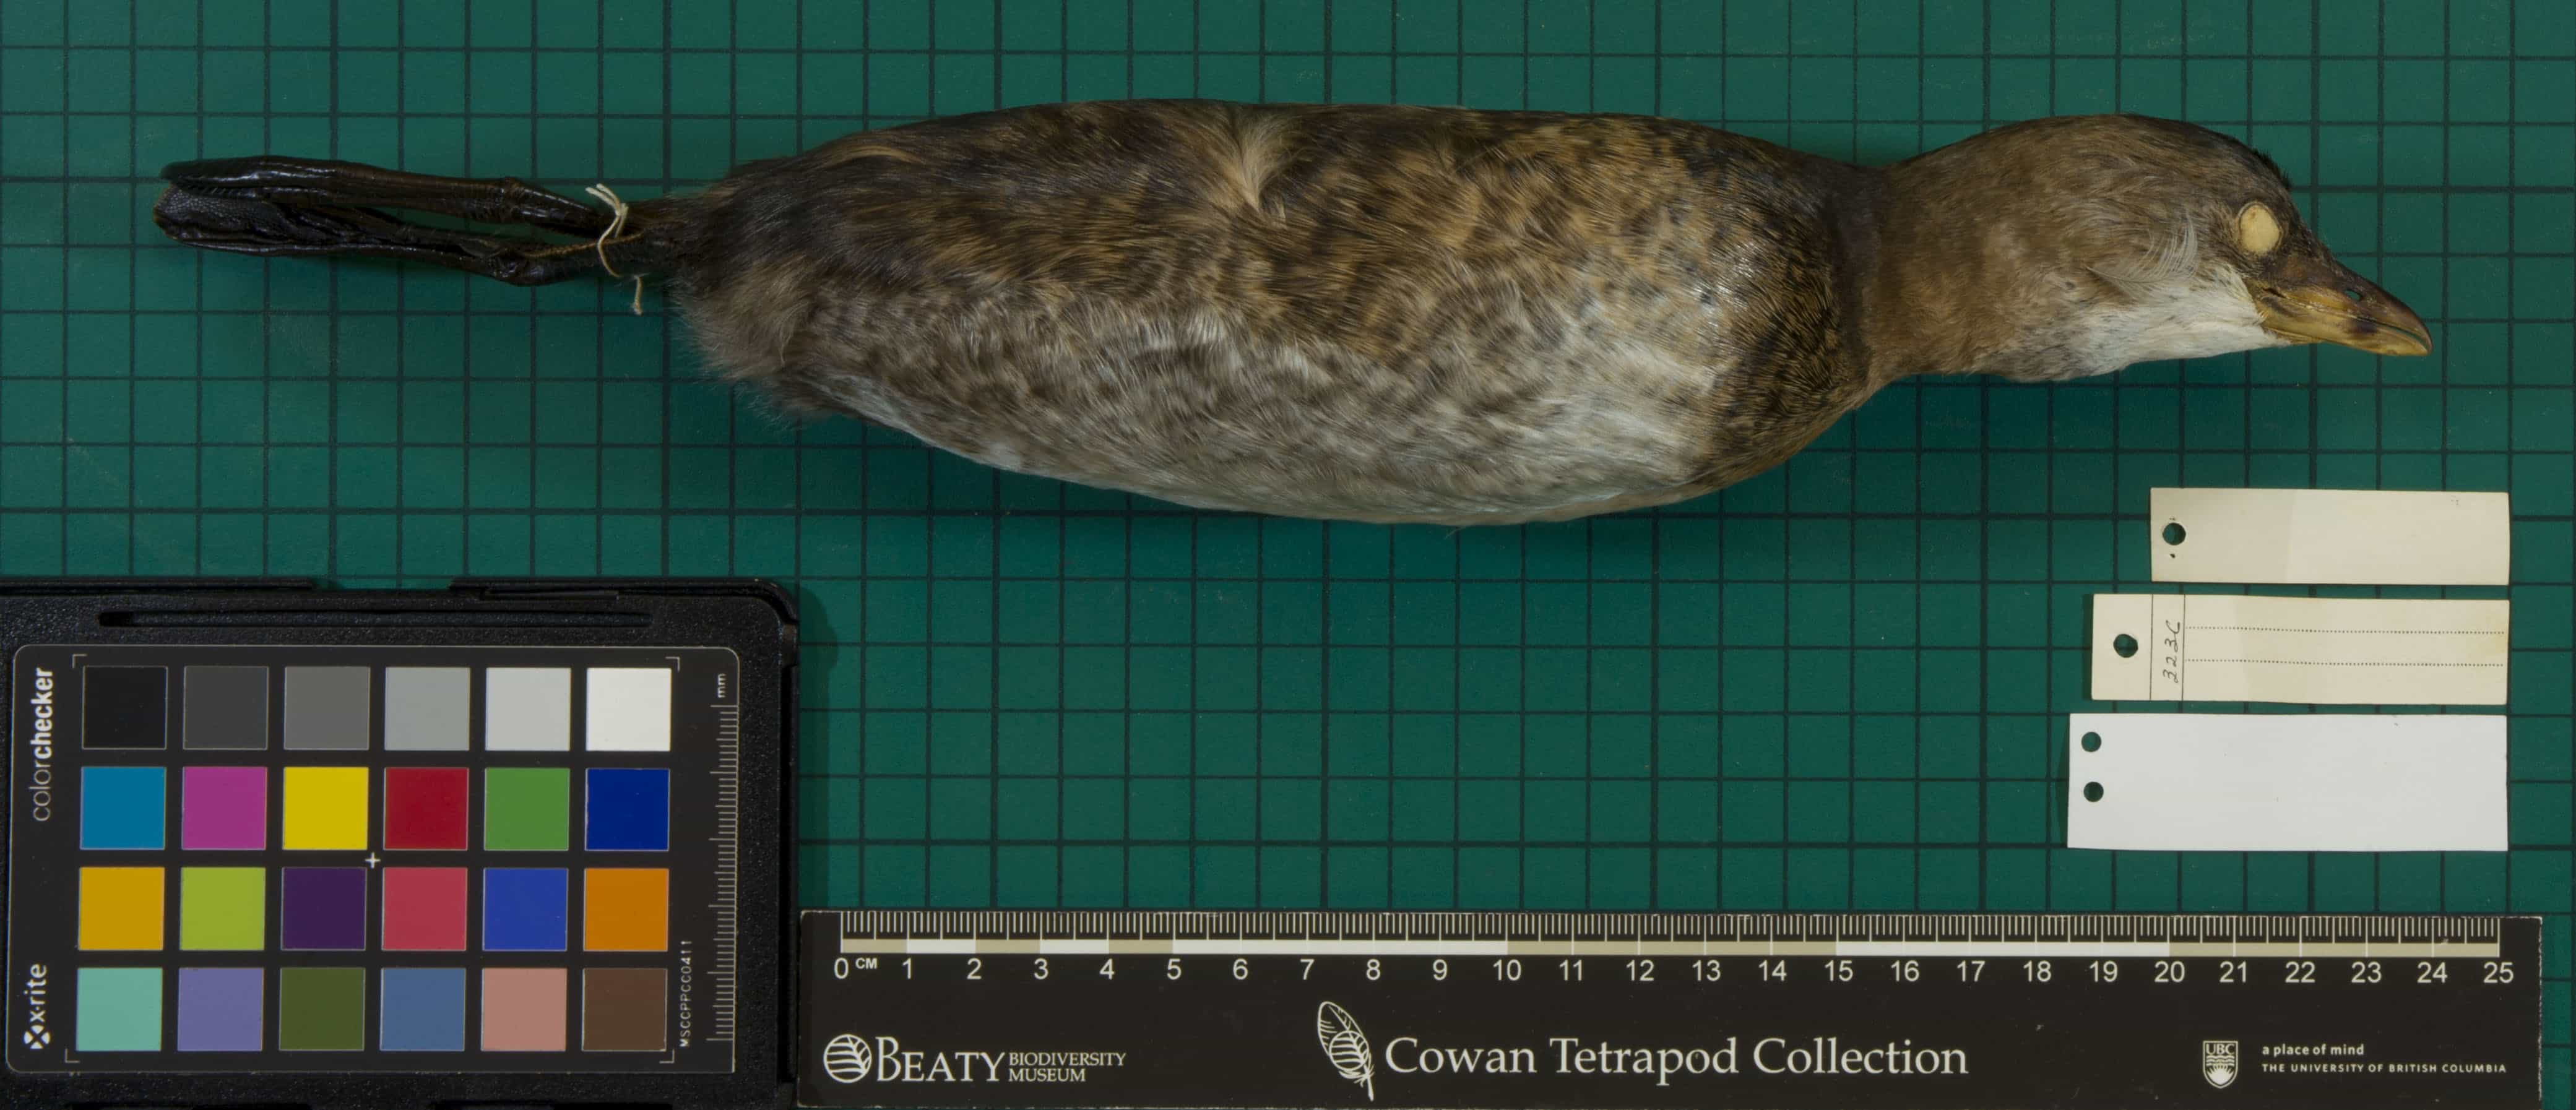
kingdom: Animalia
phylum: Chordata
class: Aves
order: Podicipediformes
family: Podicipedidae
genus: Podilymbus
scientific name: Podilymbus podiceps
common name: Pied-billed Grebe
